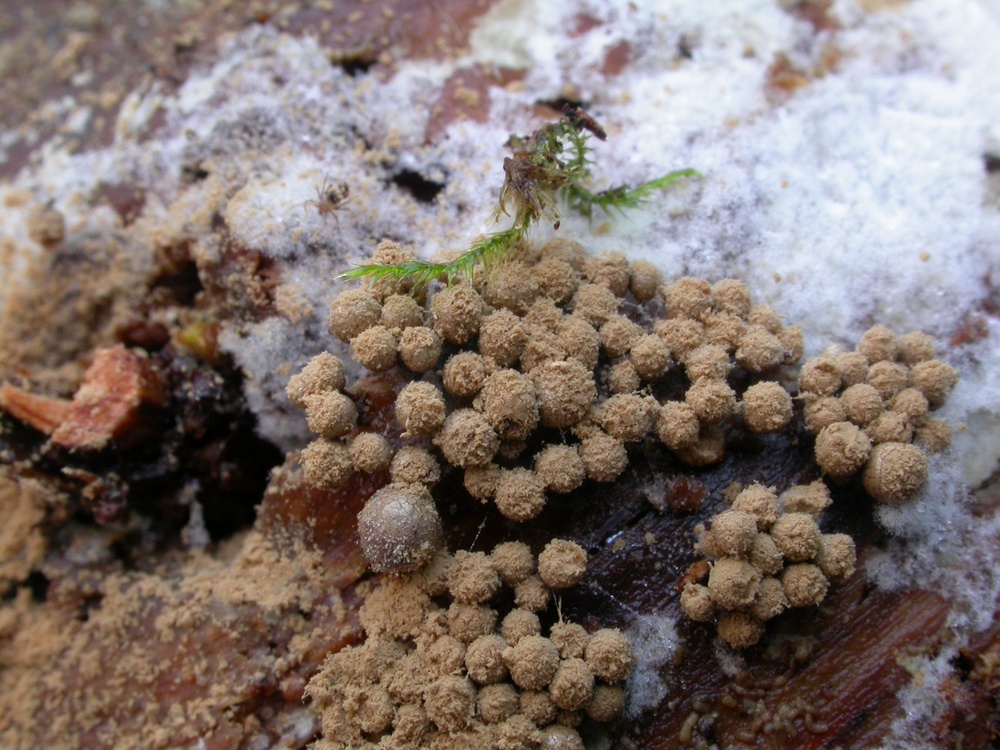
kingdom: Protozoa
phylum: Mycetozoa
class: Myxomycetes
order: Cribrariales
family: Cribrariaceae
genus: Cribraria
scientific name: Cribraria argillacea
